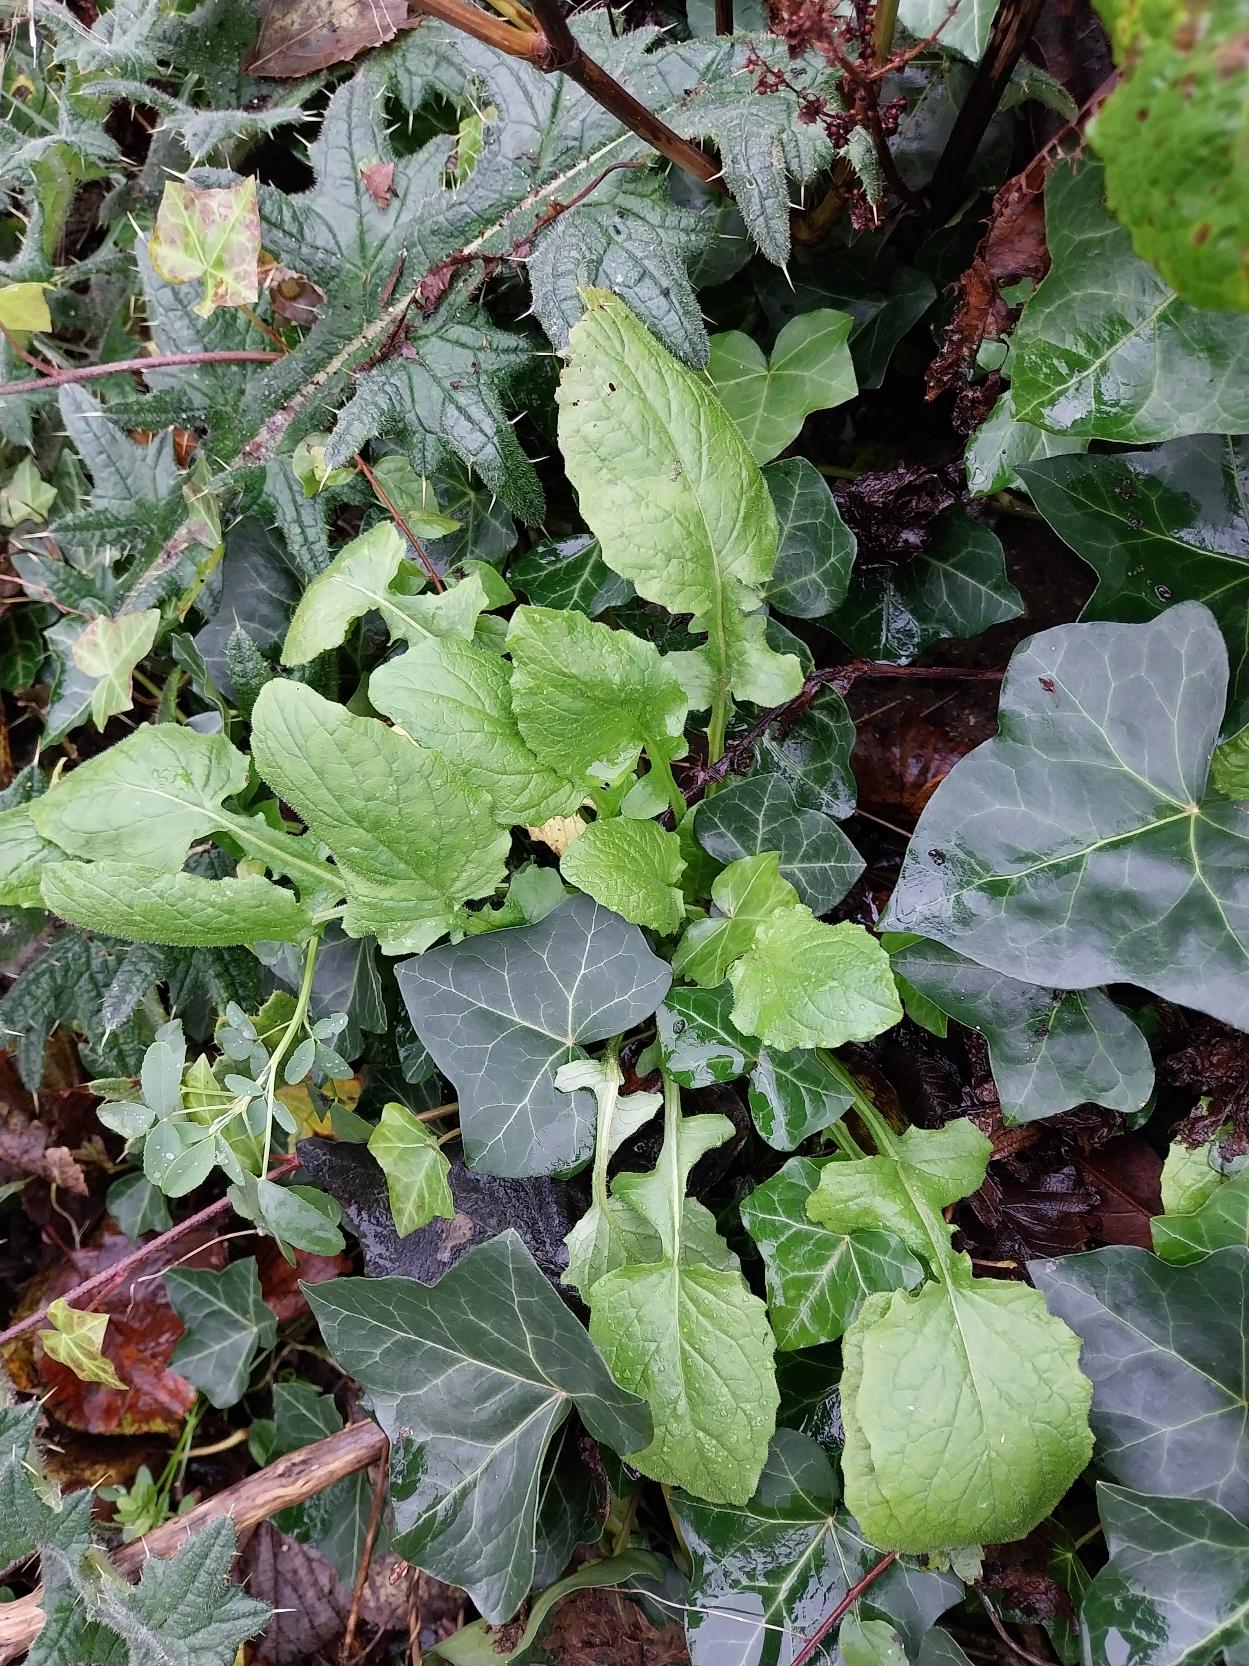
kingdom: Plantae
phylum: Tracheophyta
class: Magnoliopsida
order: Asterales
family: Asteraceae
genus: Lapsana
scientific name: Lapsana communis
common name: Haremad
